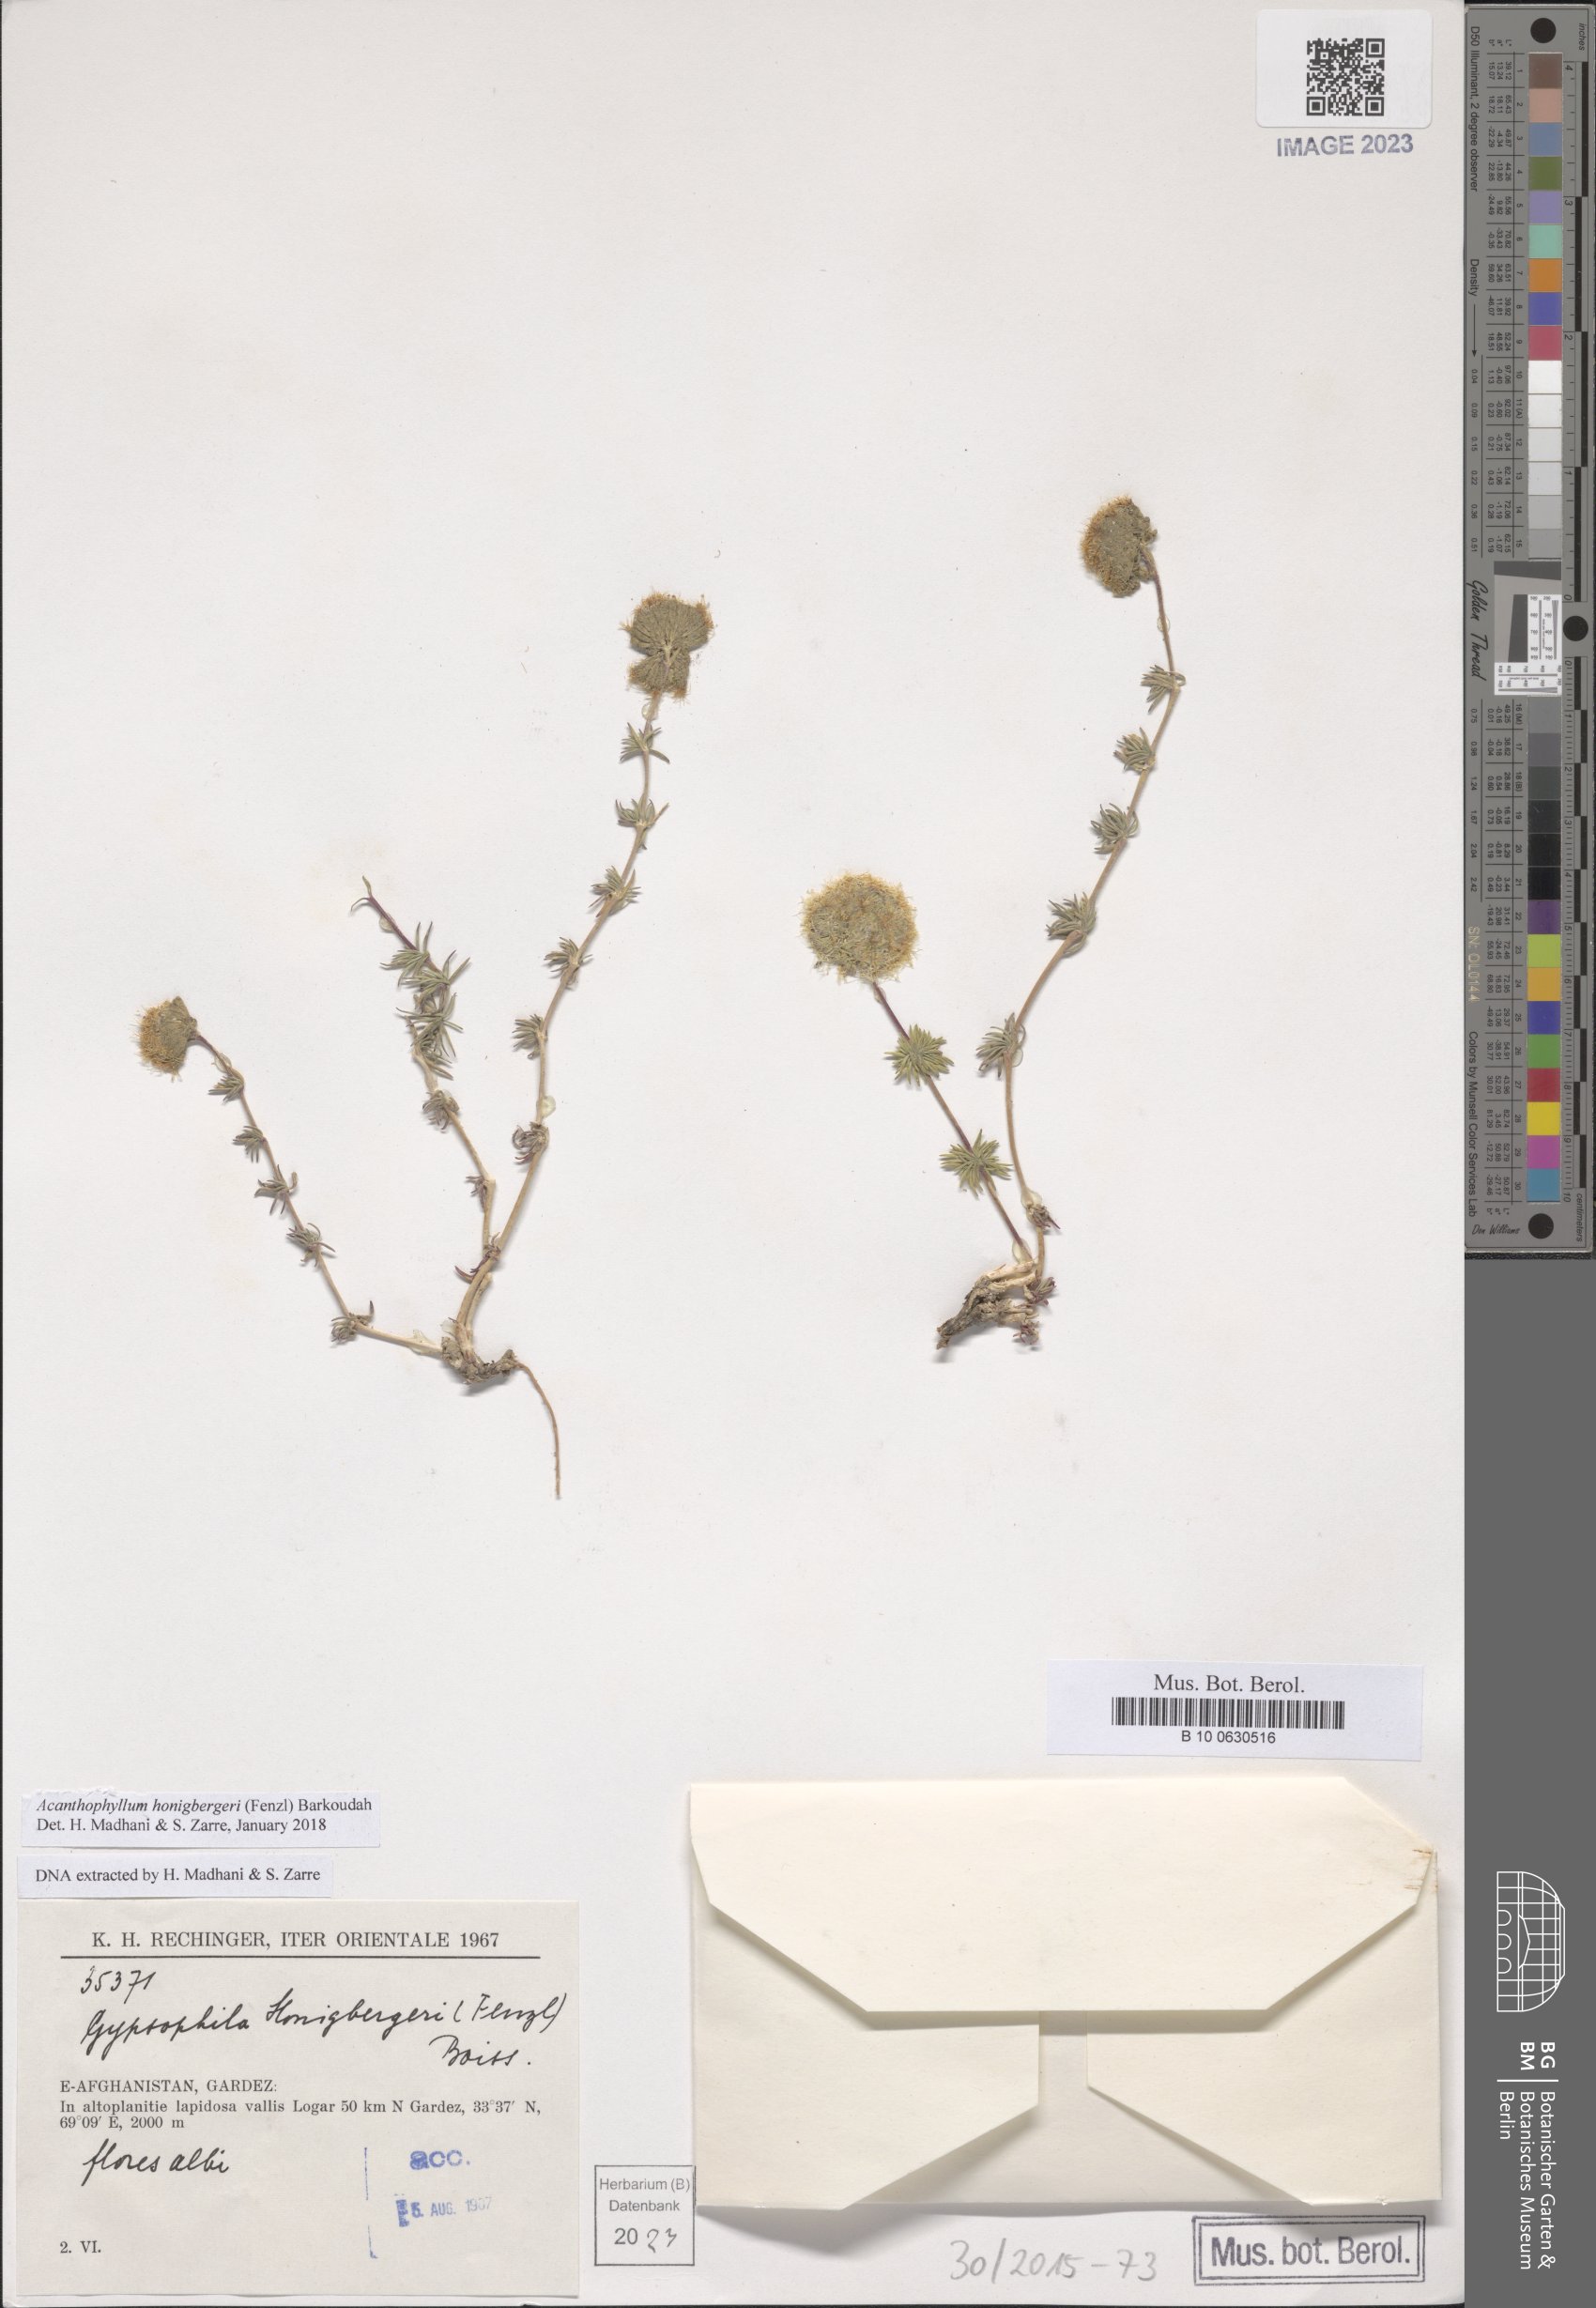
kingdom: Plantae
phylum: Tracheophyta
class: Magnoliopsida
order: Caryophyllales
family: Caryophyllaceae
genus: Acanthophyllum
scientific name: Acanthophyllum honigbergeri
